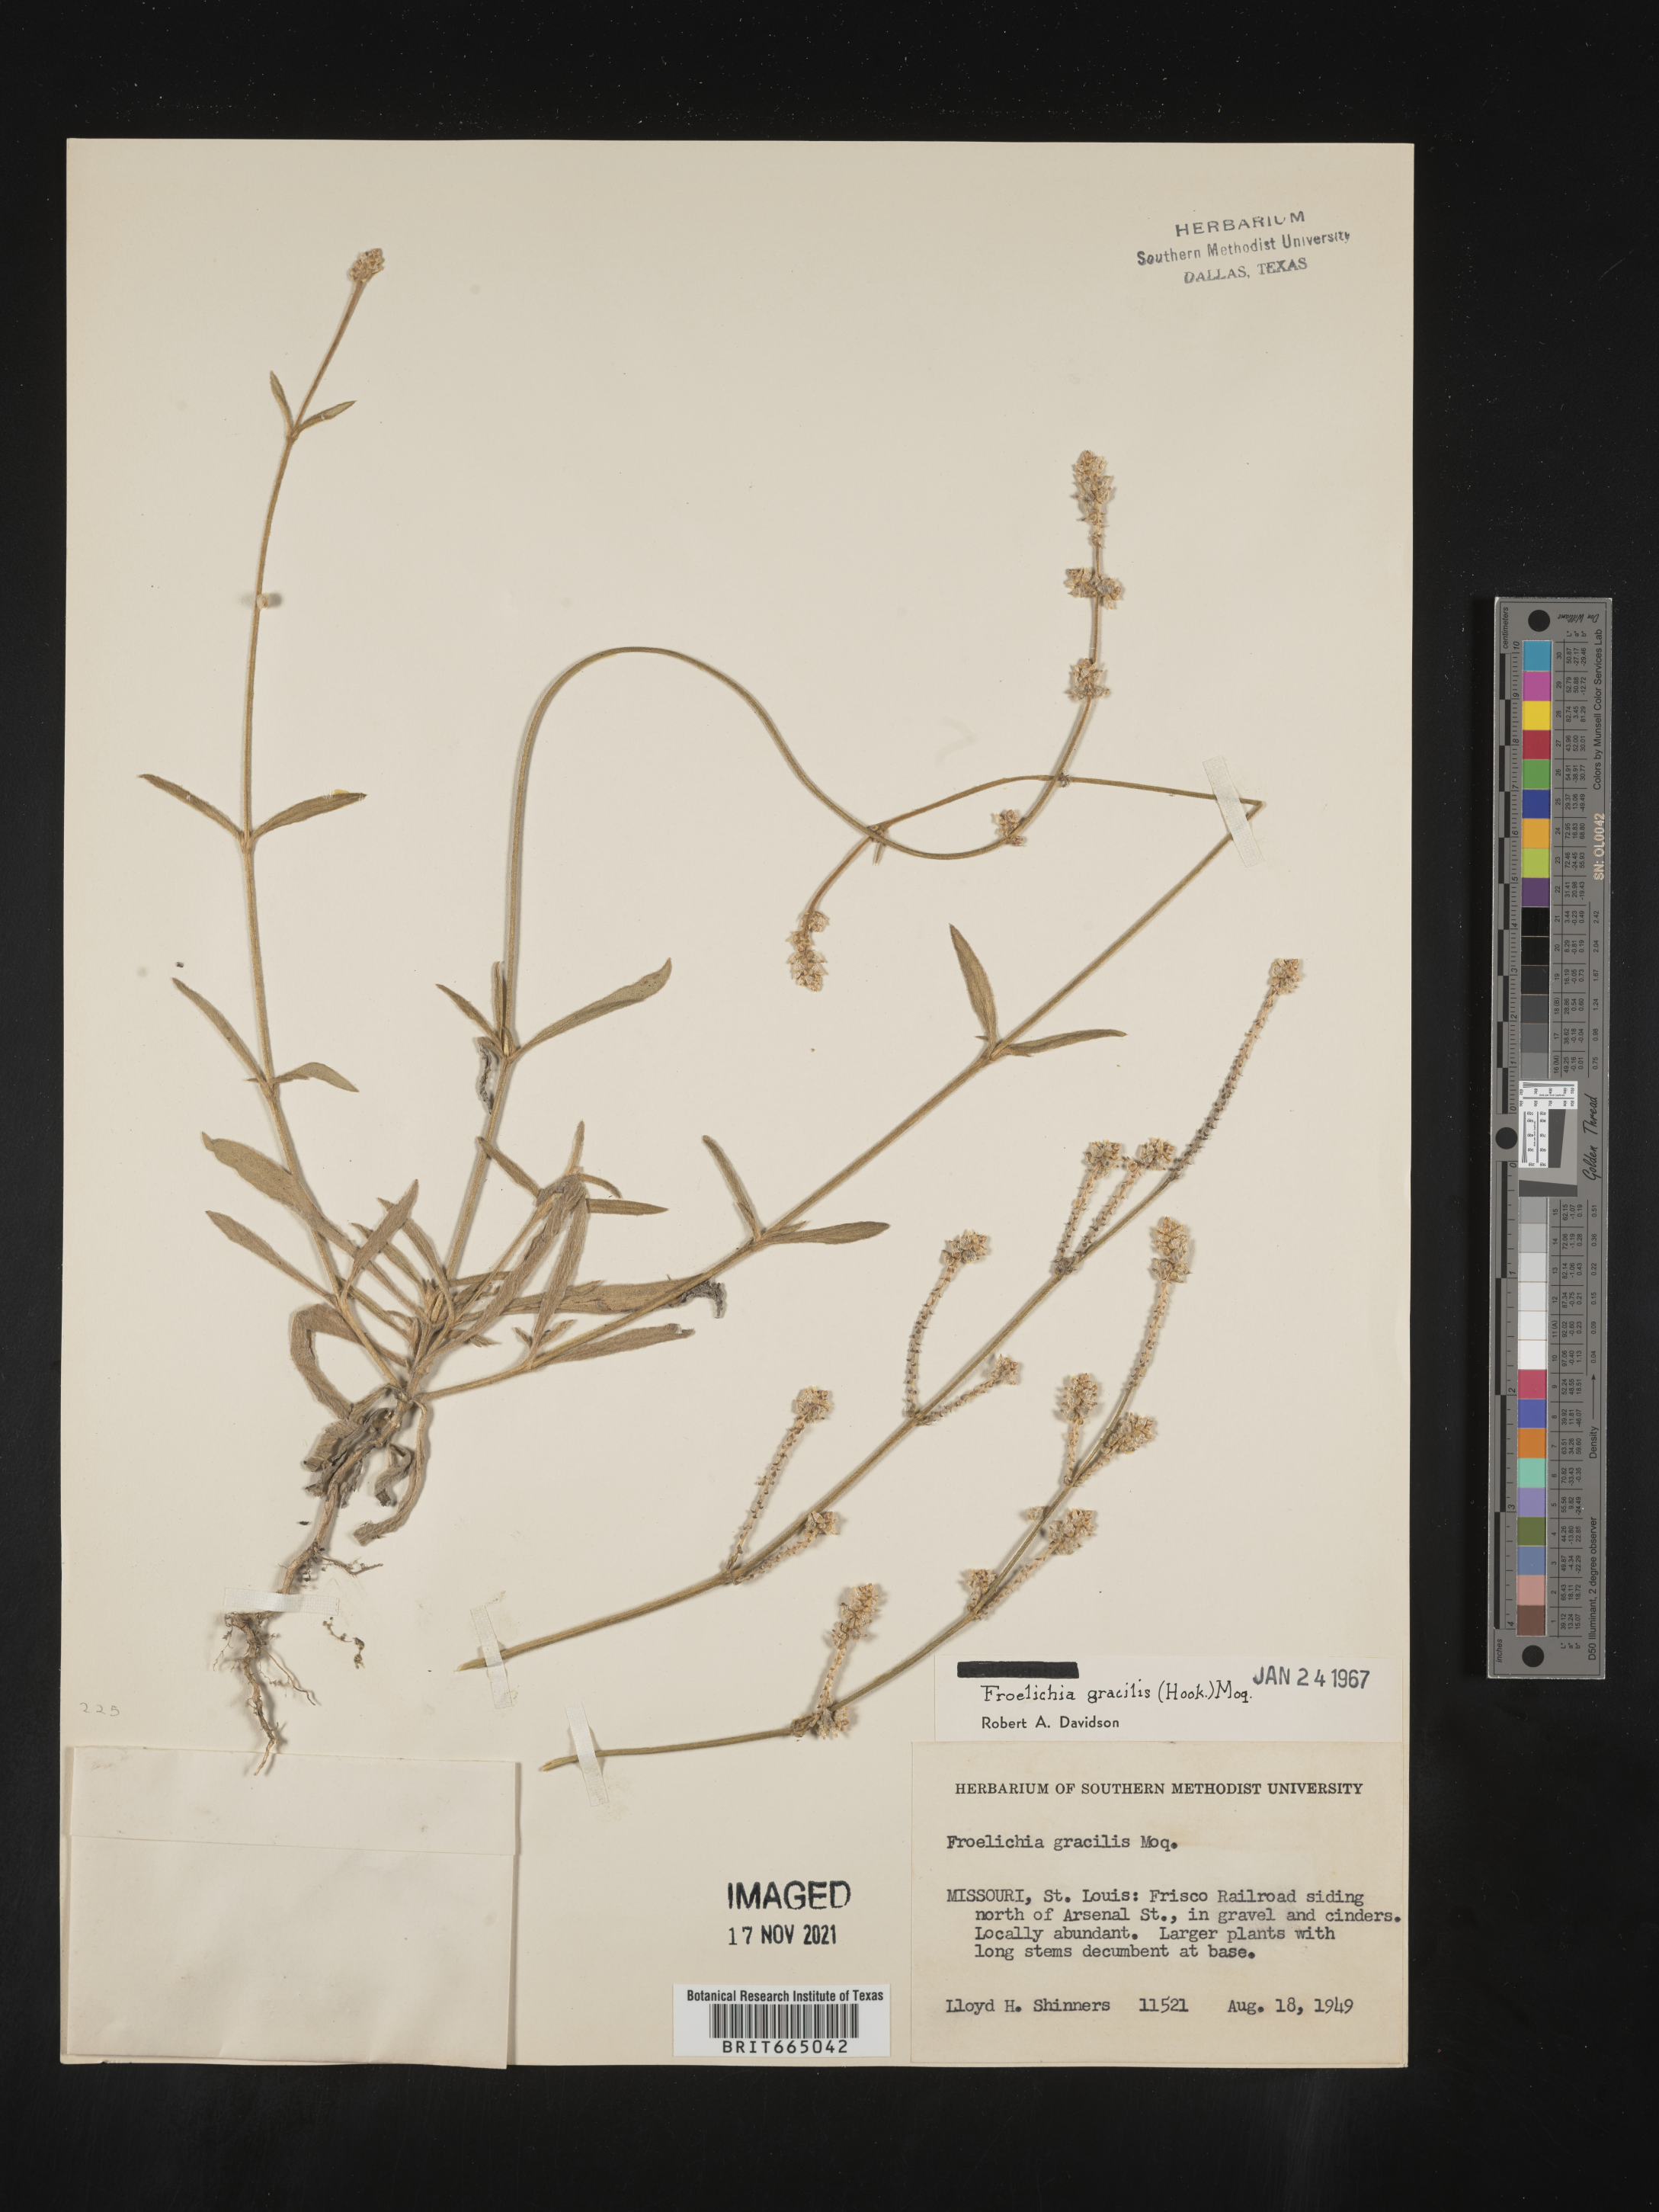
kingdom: Plantae
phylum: Tracheophyta
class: Magnoliopsida
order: Caryophyllales
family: Amaranthaceae
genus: Froelichia
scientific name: Froelichia gracilis
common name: Slender cottonweed
